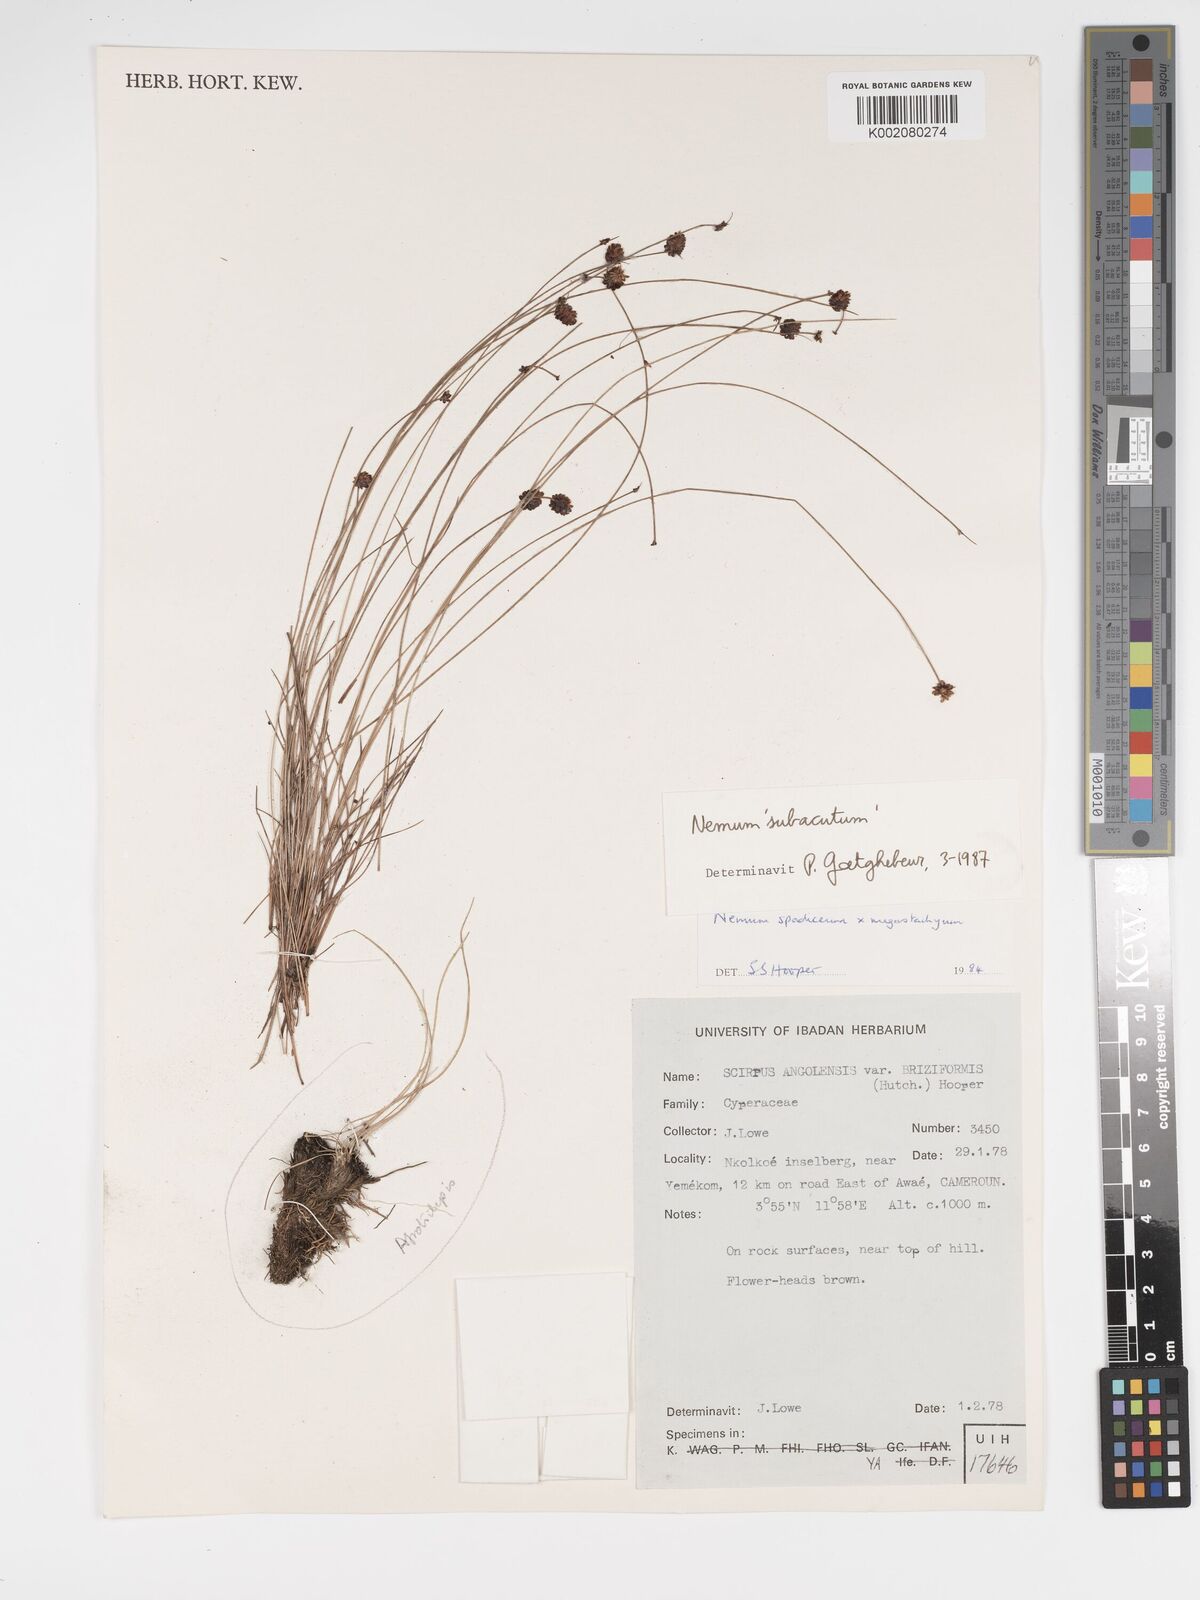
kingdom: Plantae
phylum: Tracheophyta
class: Liliopsida
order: Poales
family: Cyperaceae
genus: Bulbostylis
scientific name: Bulbostylis briziformis
